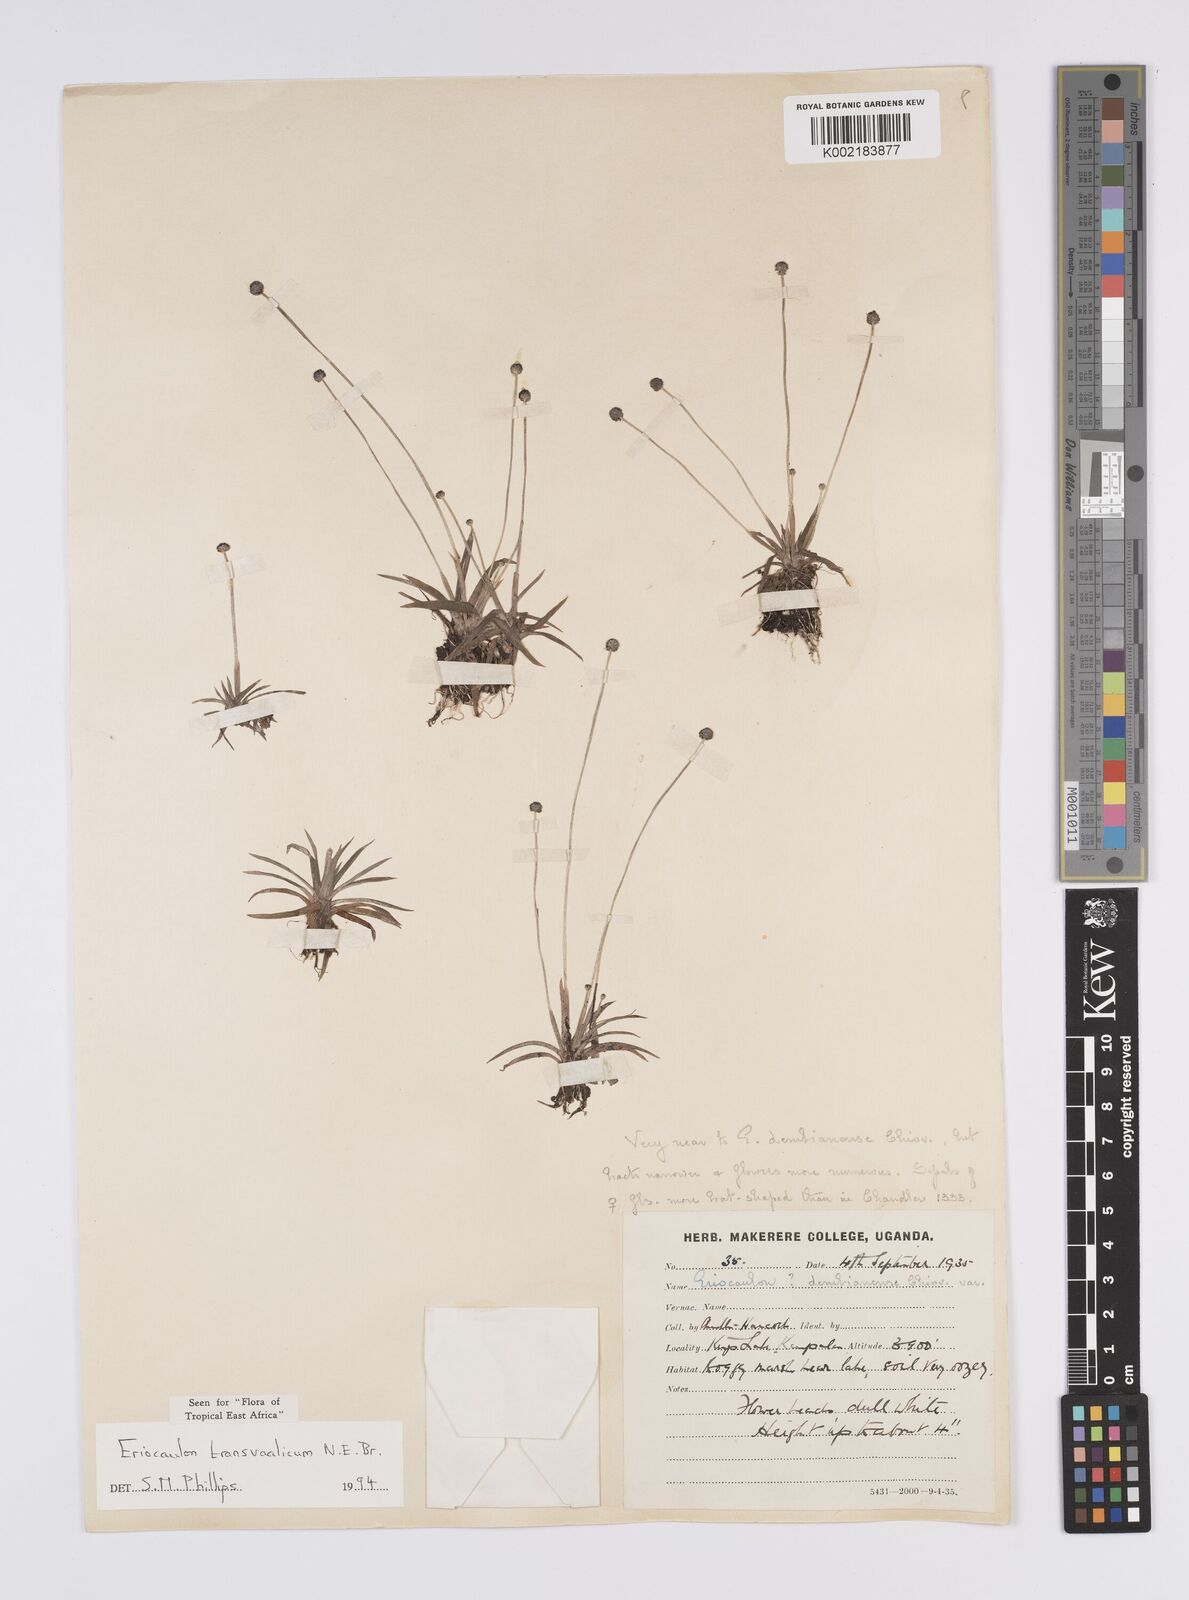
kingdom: Plantae
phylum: Tracheophyta
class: Liliopsida
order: Poales
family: Eriocaulaceae
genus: Eriocaulon
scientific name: Eriocaulon transvaalicum
